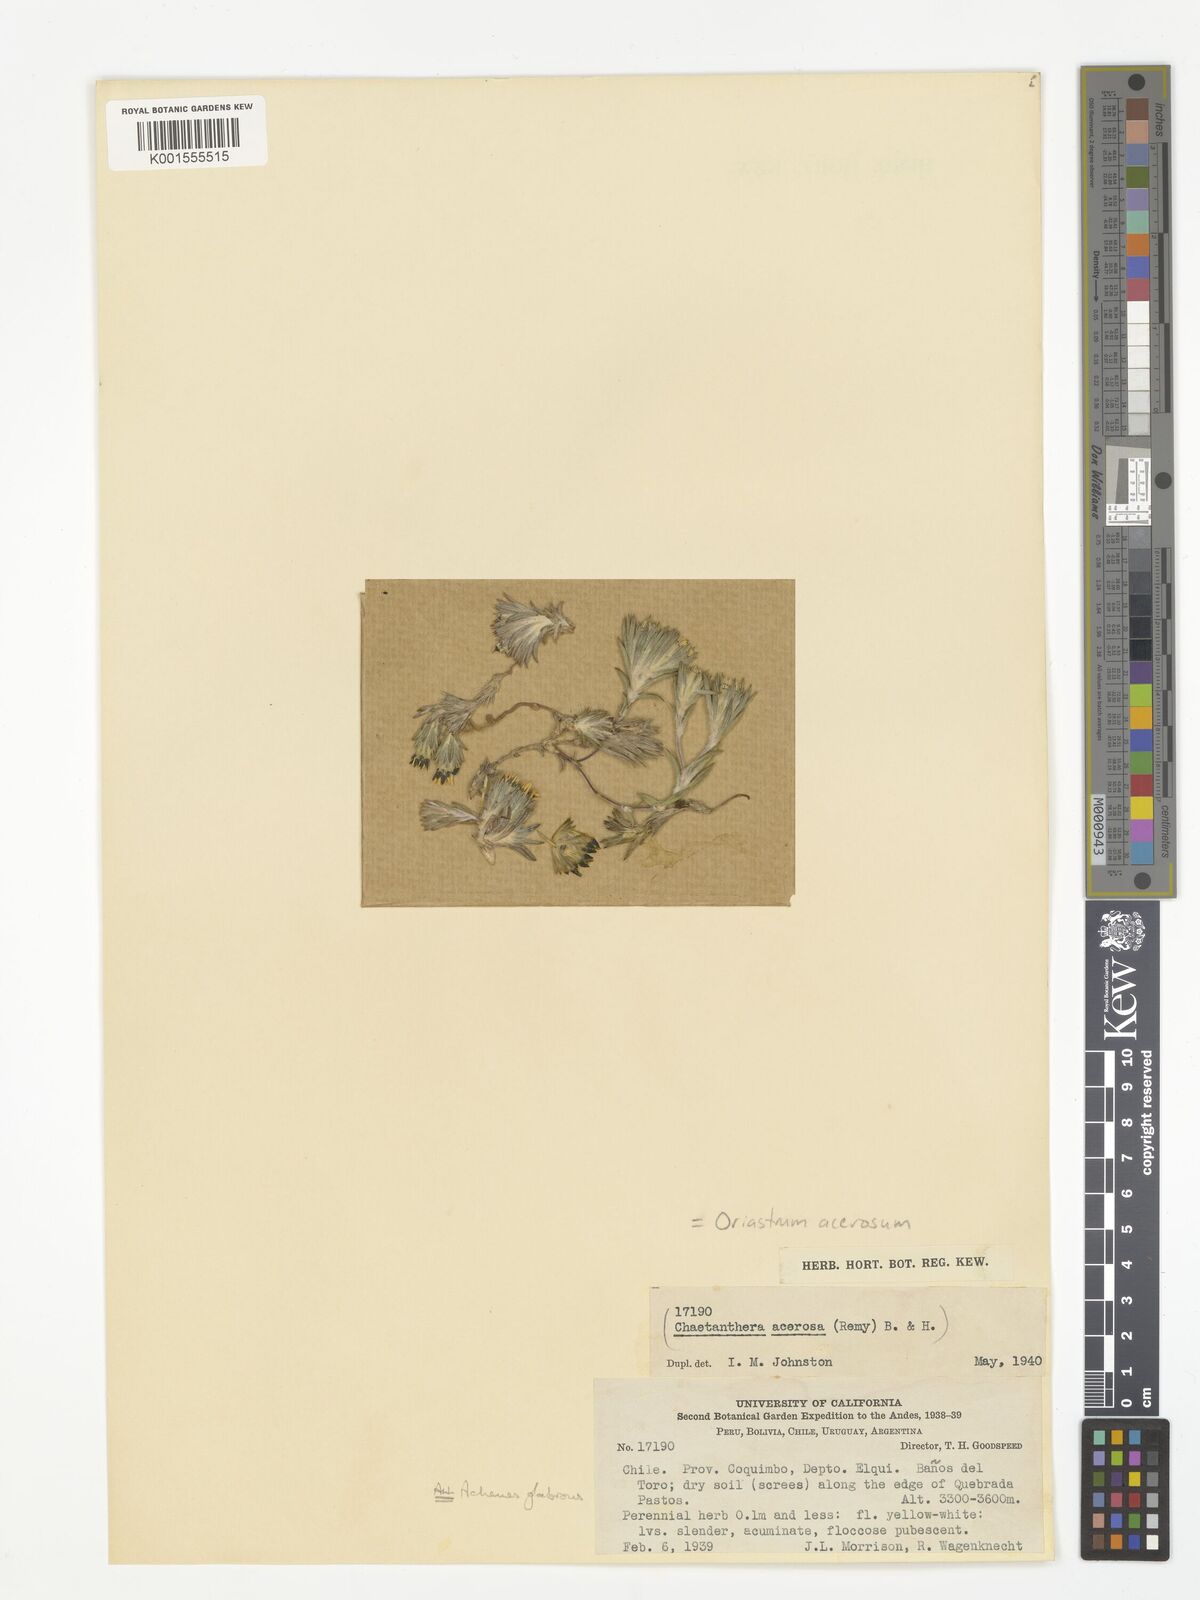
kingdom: Plantae
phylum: Tracheophyta
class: Magnoliopsida
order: Asterales
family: Asteraceae
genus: Oriastrum
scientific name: Oriastrum acerosum
